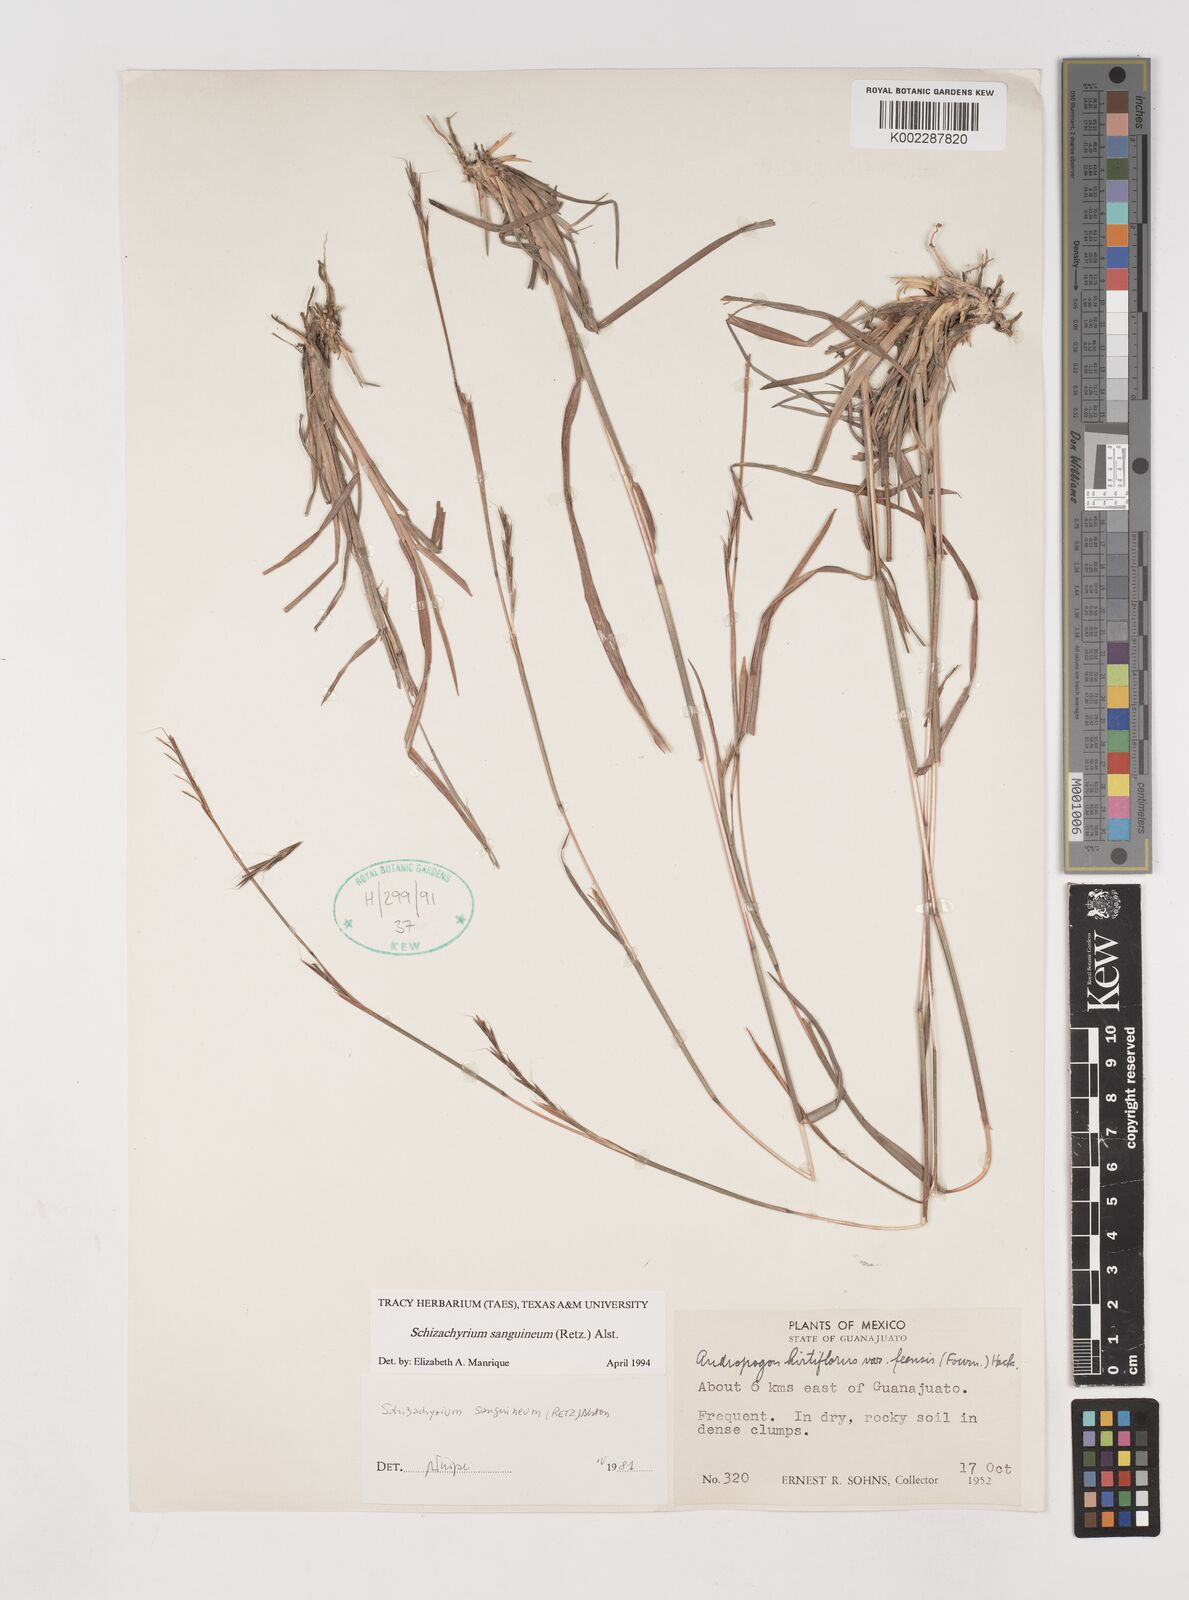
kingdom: Plantae
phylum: Tracheophyta
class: Liliopsida
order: Poales
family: Poaceae
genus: Schizachyrium
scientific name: Schizachyrium sanguineum
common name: Crimson bluestem
